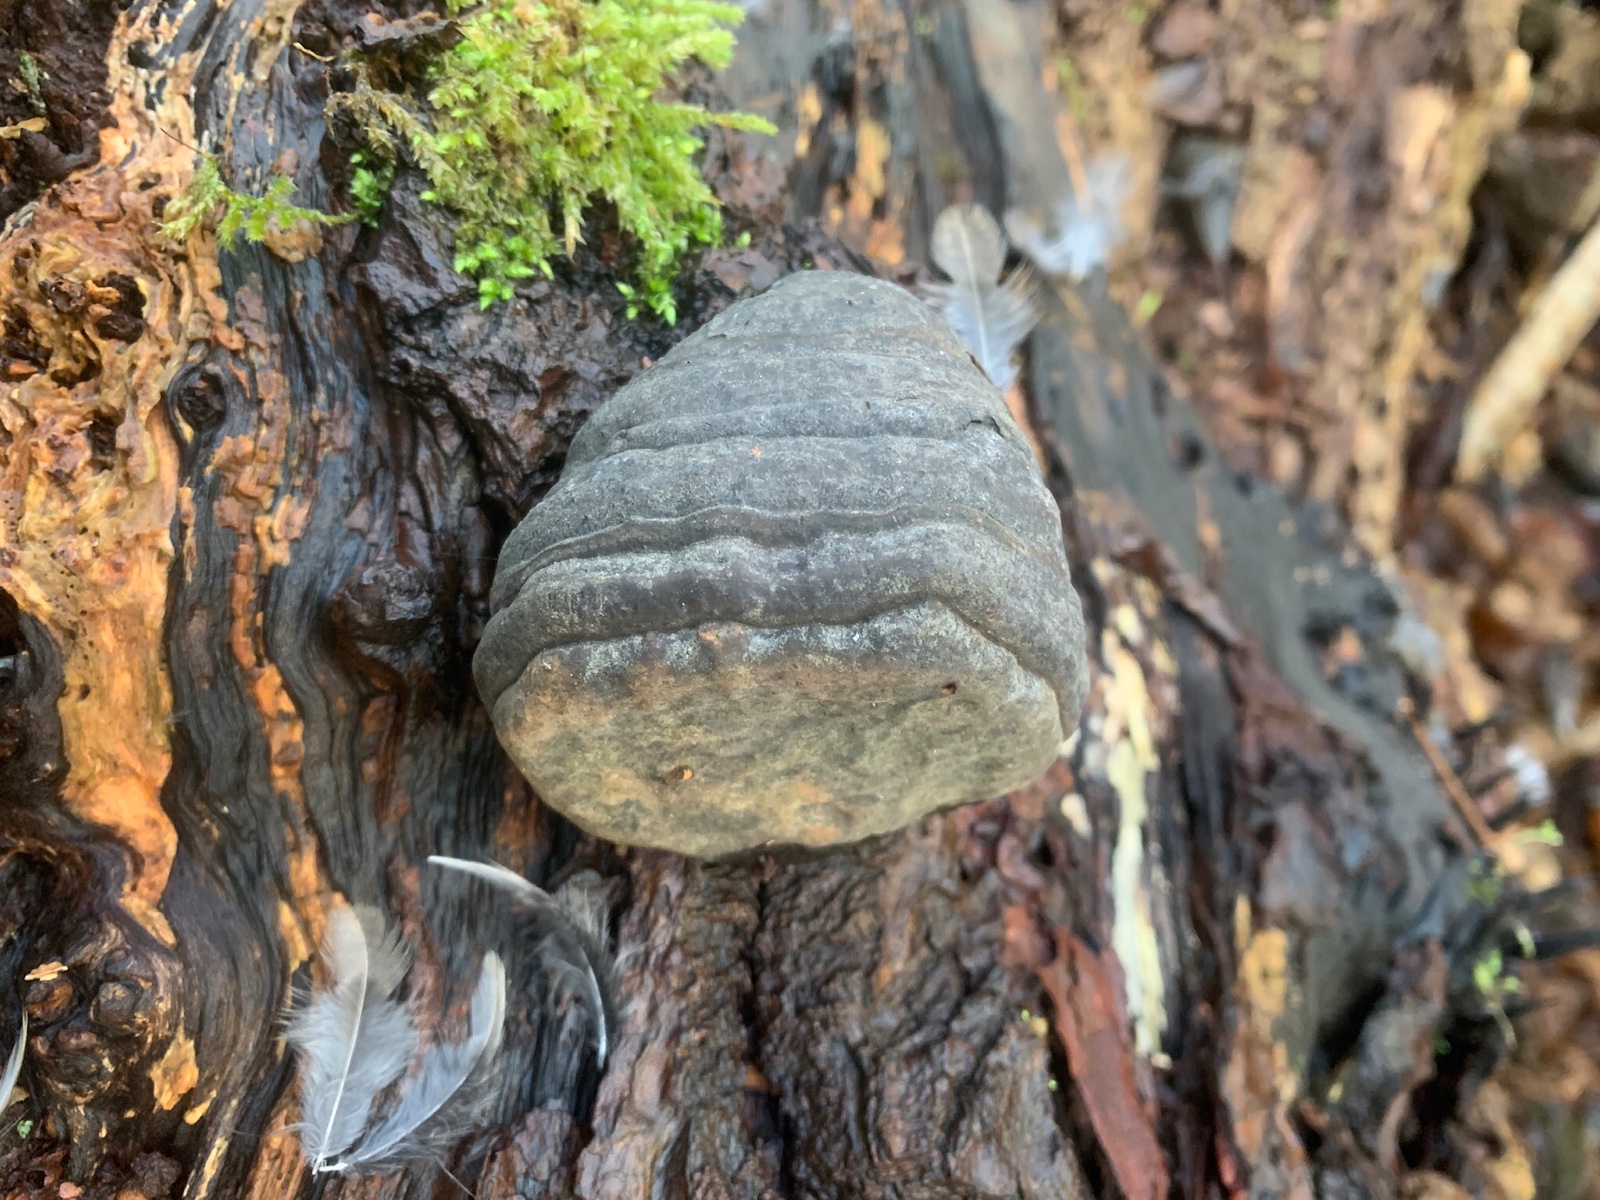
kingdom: Fungi
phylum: Basidiomycota
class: Agaricomycetes
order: Polyporales
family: Polyporaceae
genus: Fomes
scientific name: Fomes fomentarius
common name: tøndersvamp
